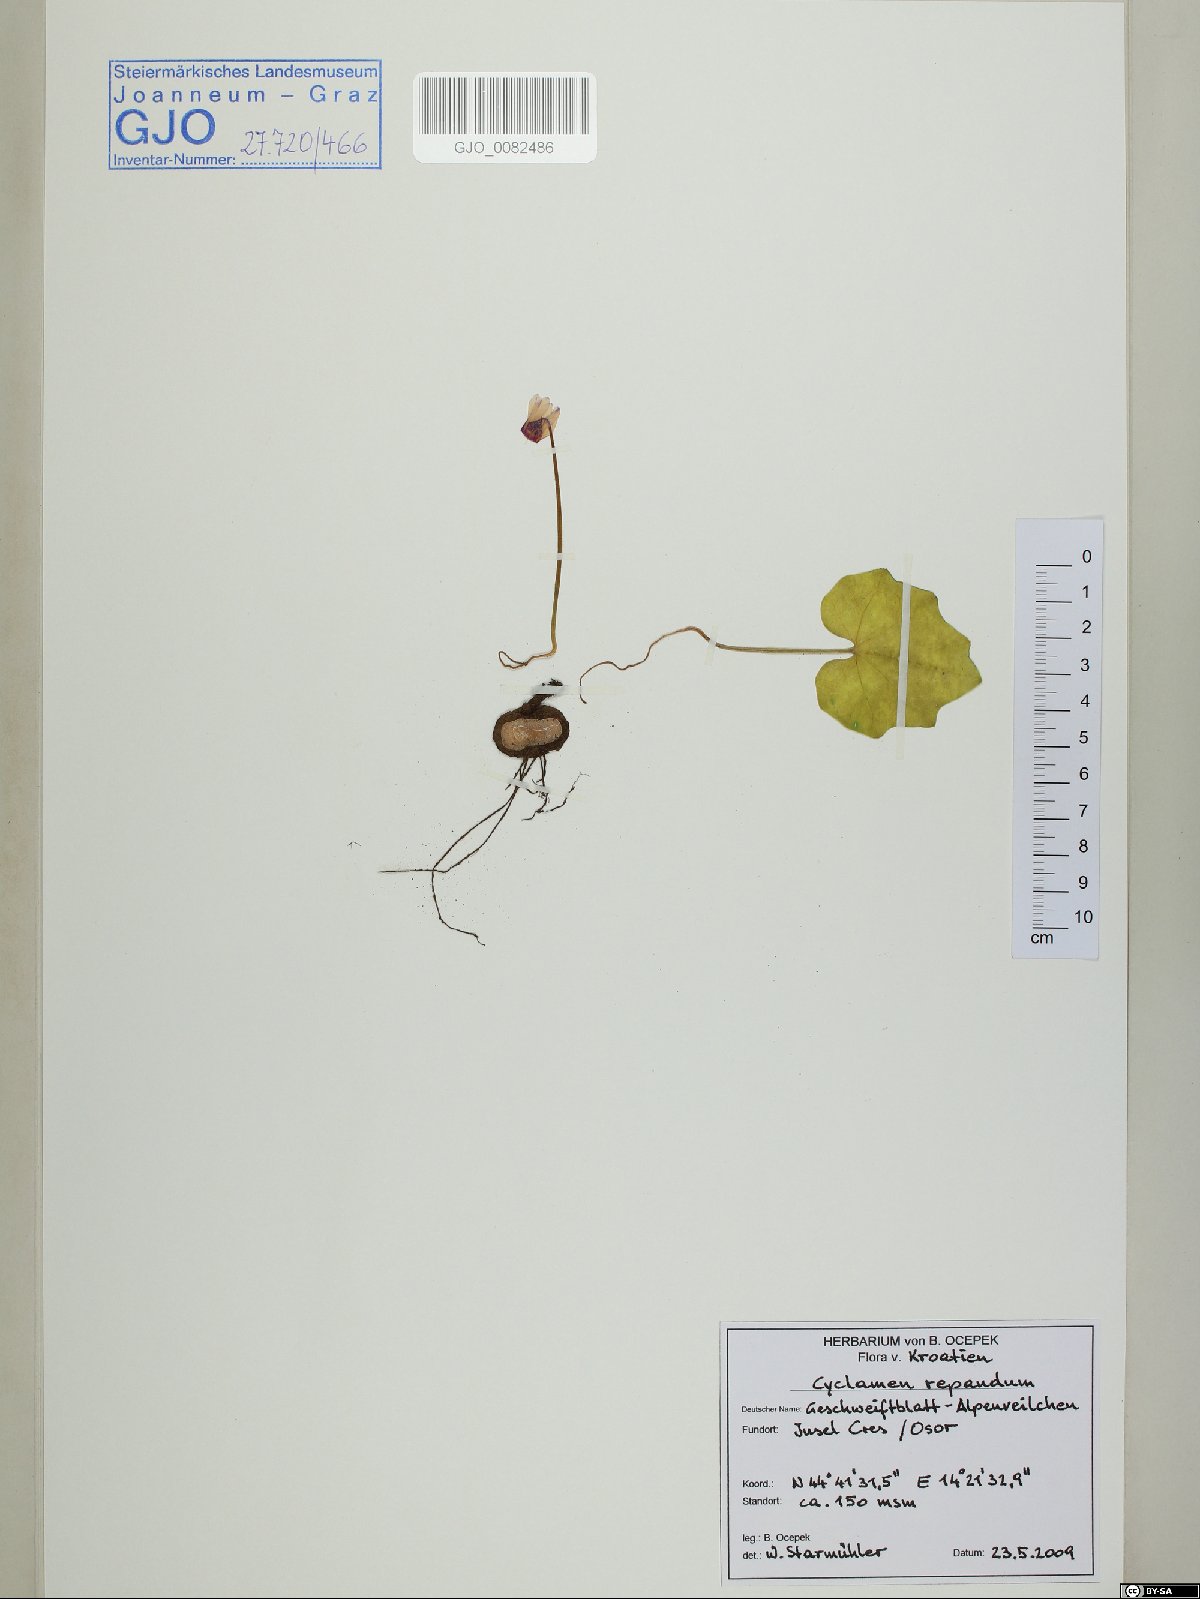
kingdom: Plantae
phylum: Tracheophyta
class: Magnoliopsida
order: Ericales
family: Primulaceae
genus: Cyclamen
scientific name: Cyclamen repandum
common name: Spring sowbread
